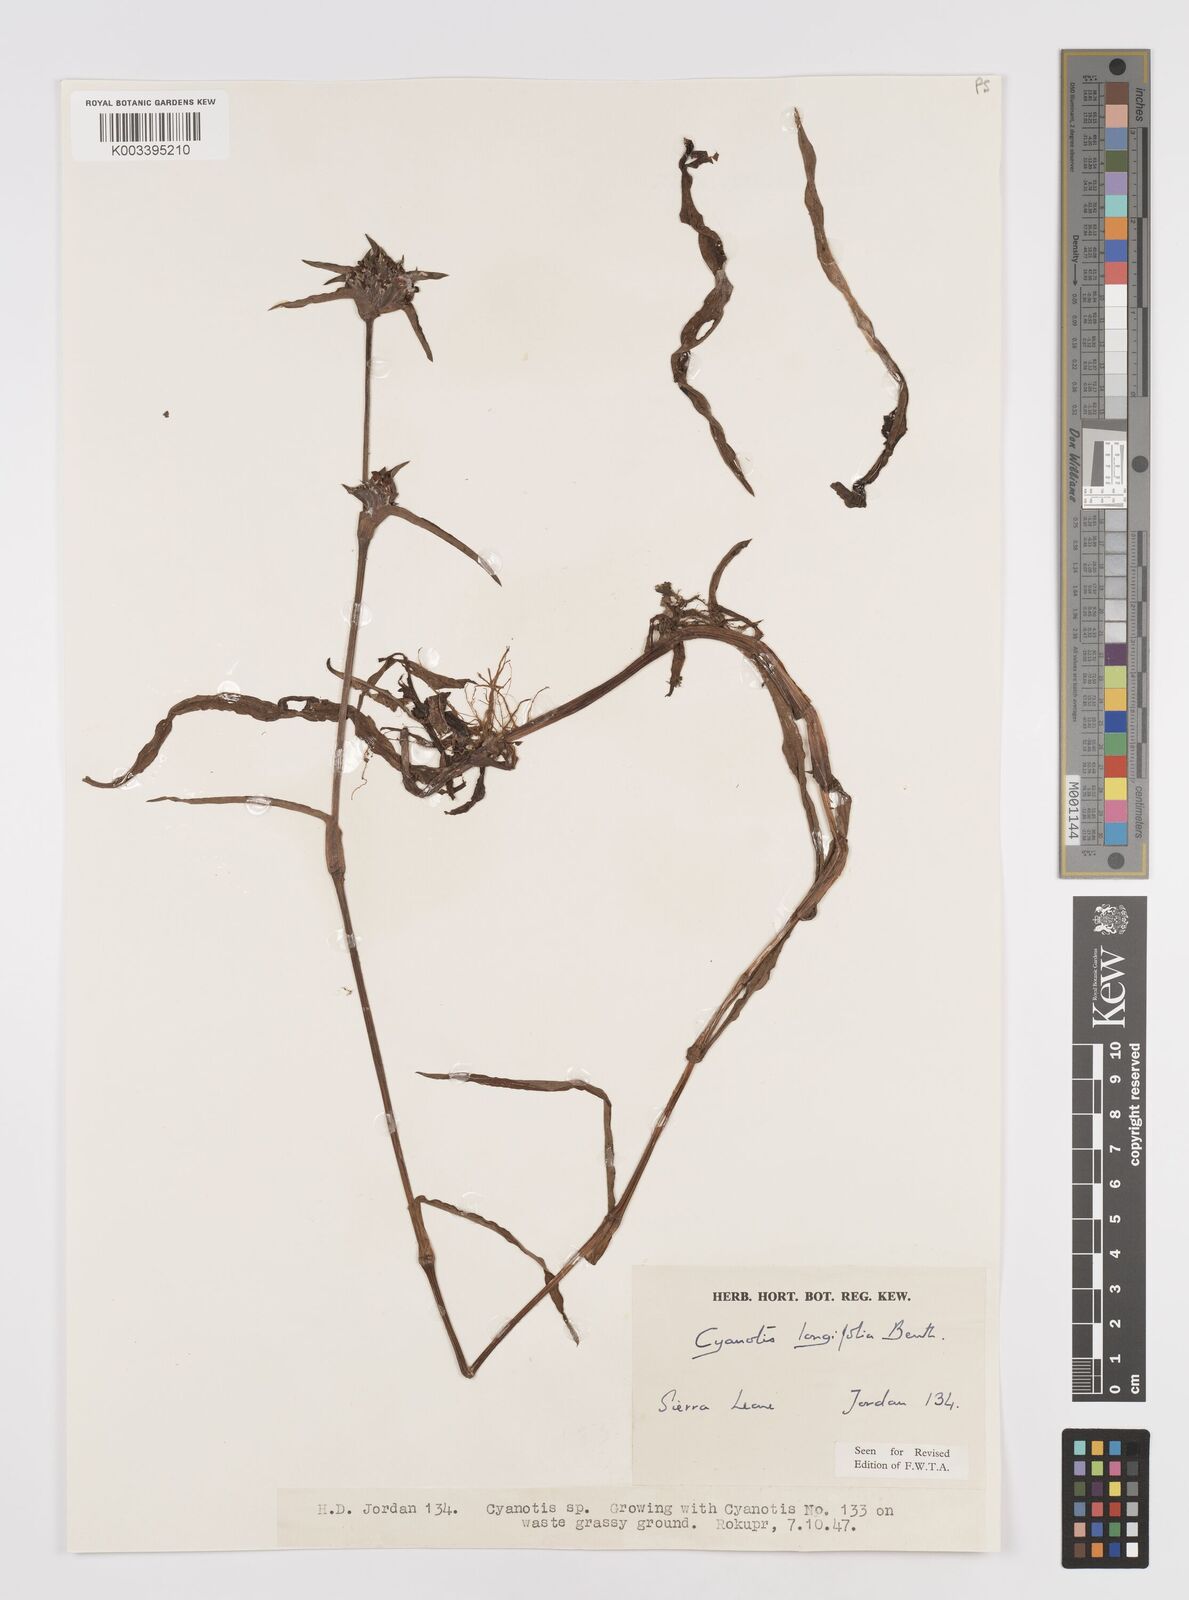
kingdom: Plantae
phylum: Tracheophyta
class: Liliopsida
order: Commelinales
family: Commelinaceae
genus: Cyanotis
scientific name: Cyanotis
